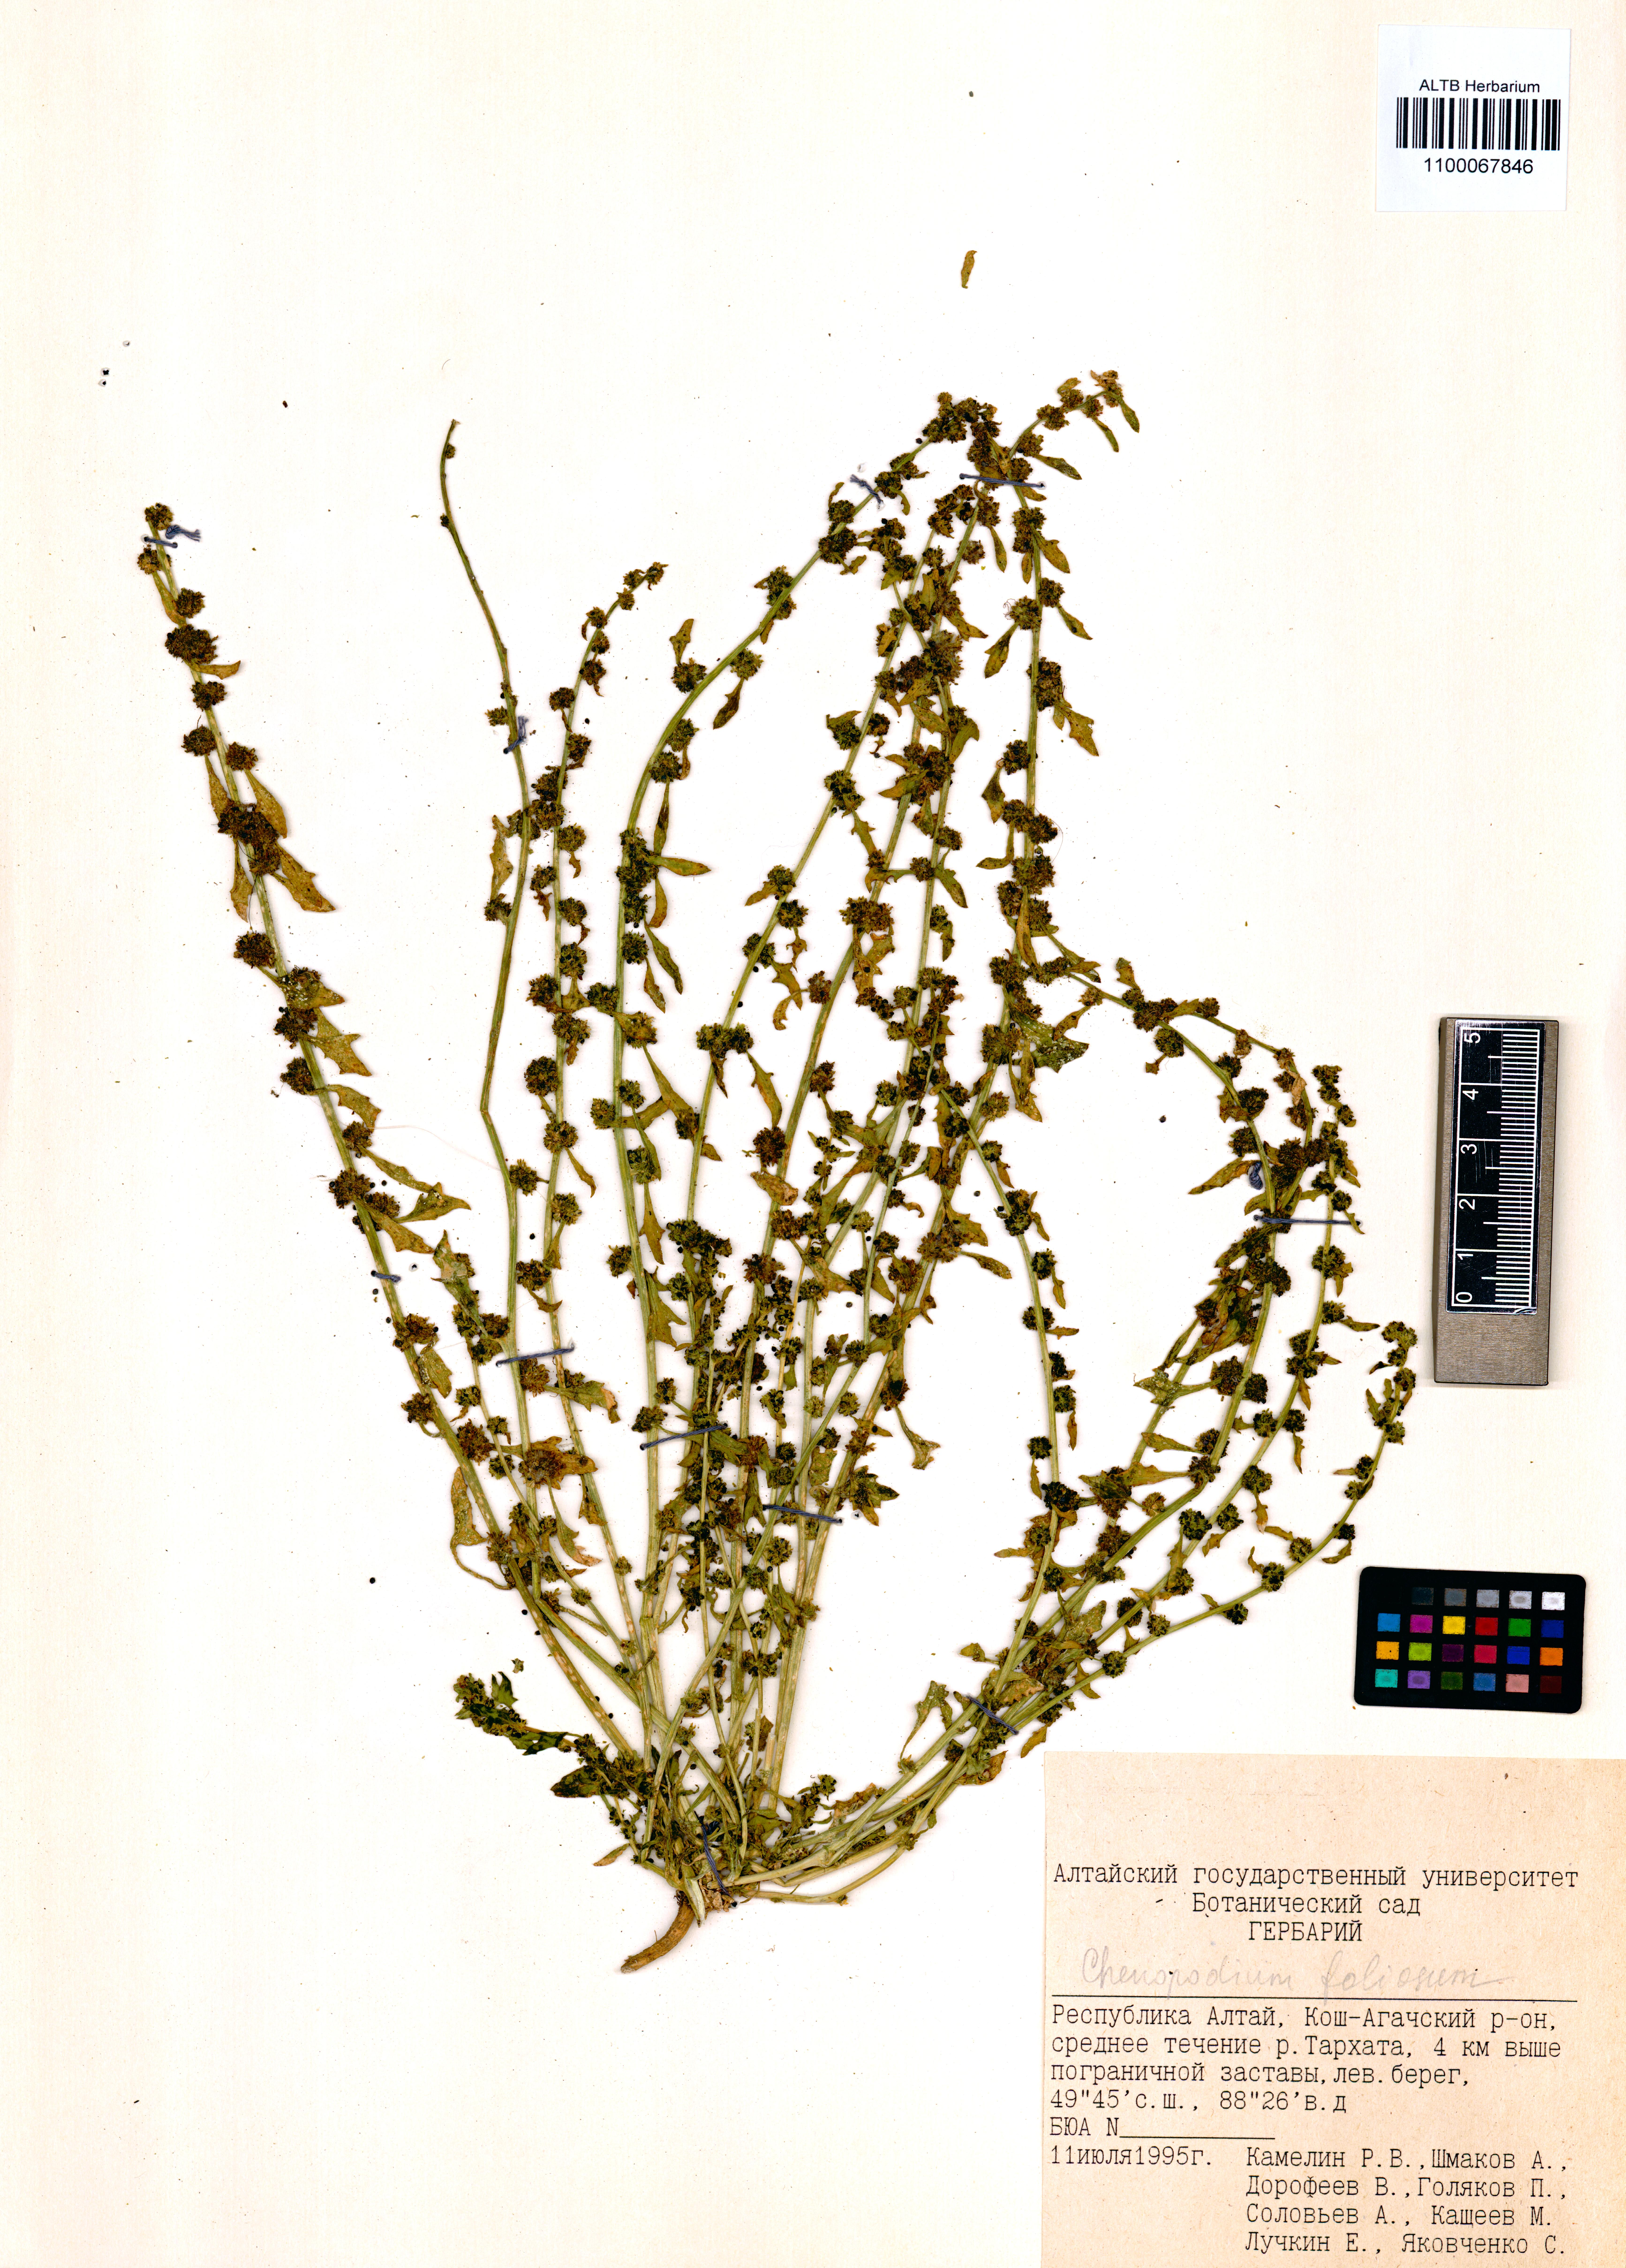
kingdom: Plantae
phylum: Tracheophyta
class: Magnoliopsida
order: Caryophyllales
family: Amaranthaceae
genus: Blitum
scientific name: Blitum virgatum
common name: Strawberry goosefoot
